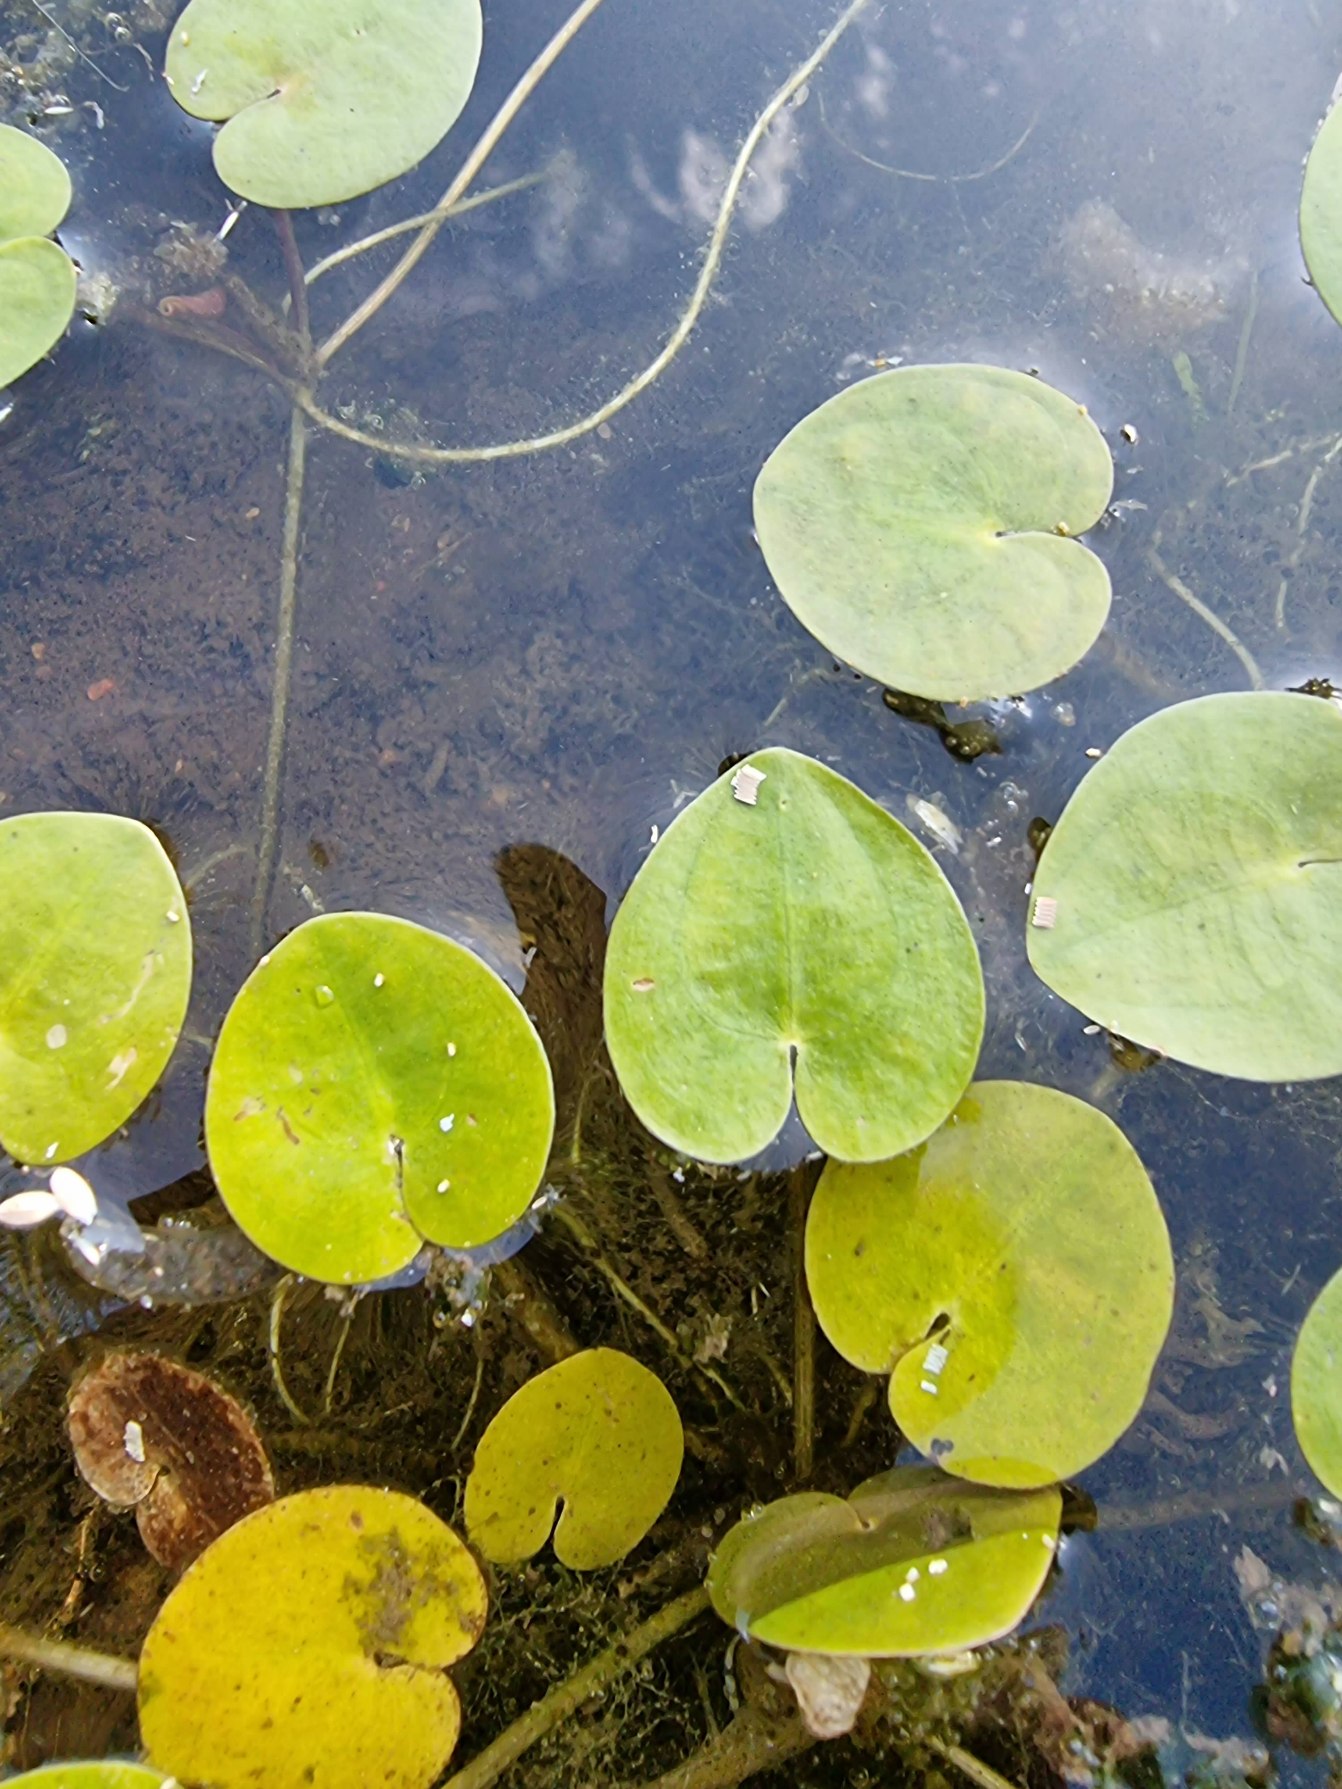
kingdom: Plantae
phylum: Tracheophyta
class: Liliopsida
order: Alismatales
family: Hydrocharitaceae
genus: Hydrocharis
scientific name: Hydrocharis morsus-ranae
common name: Frøbid
